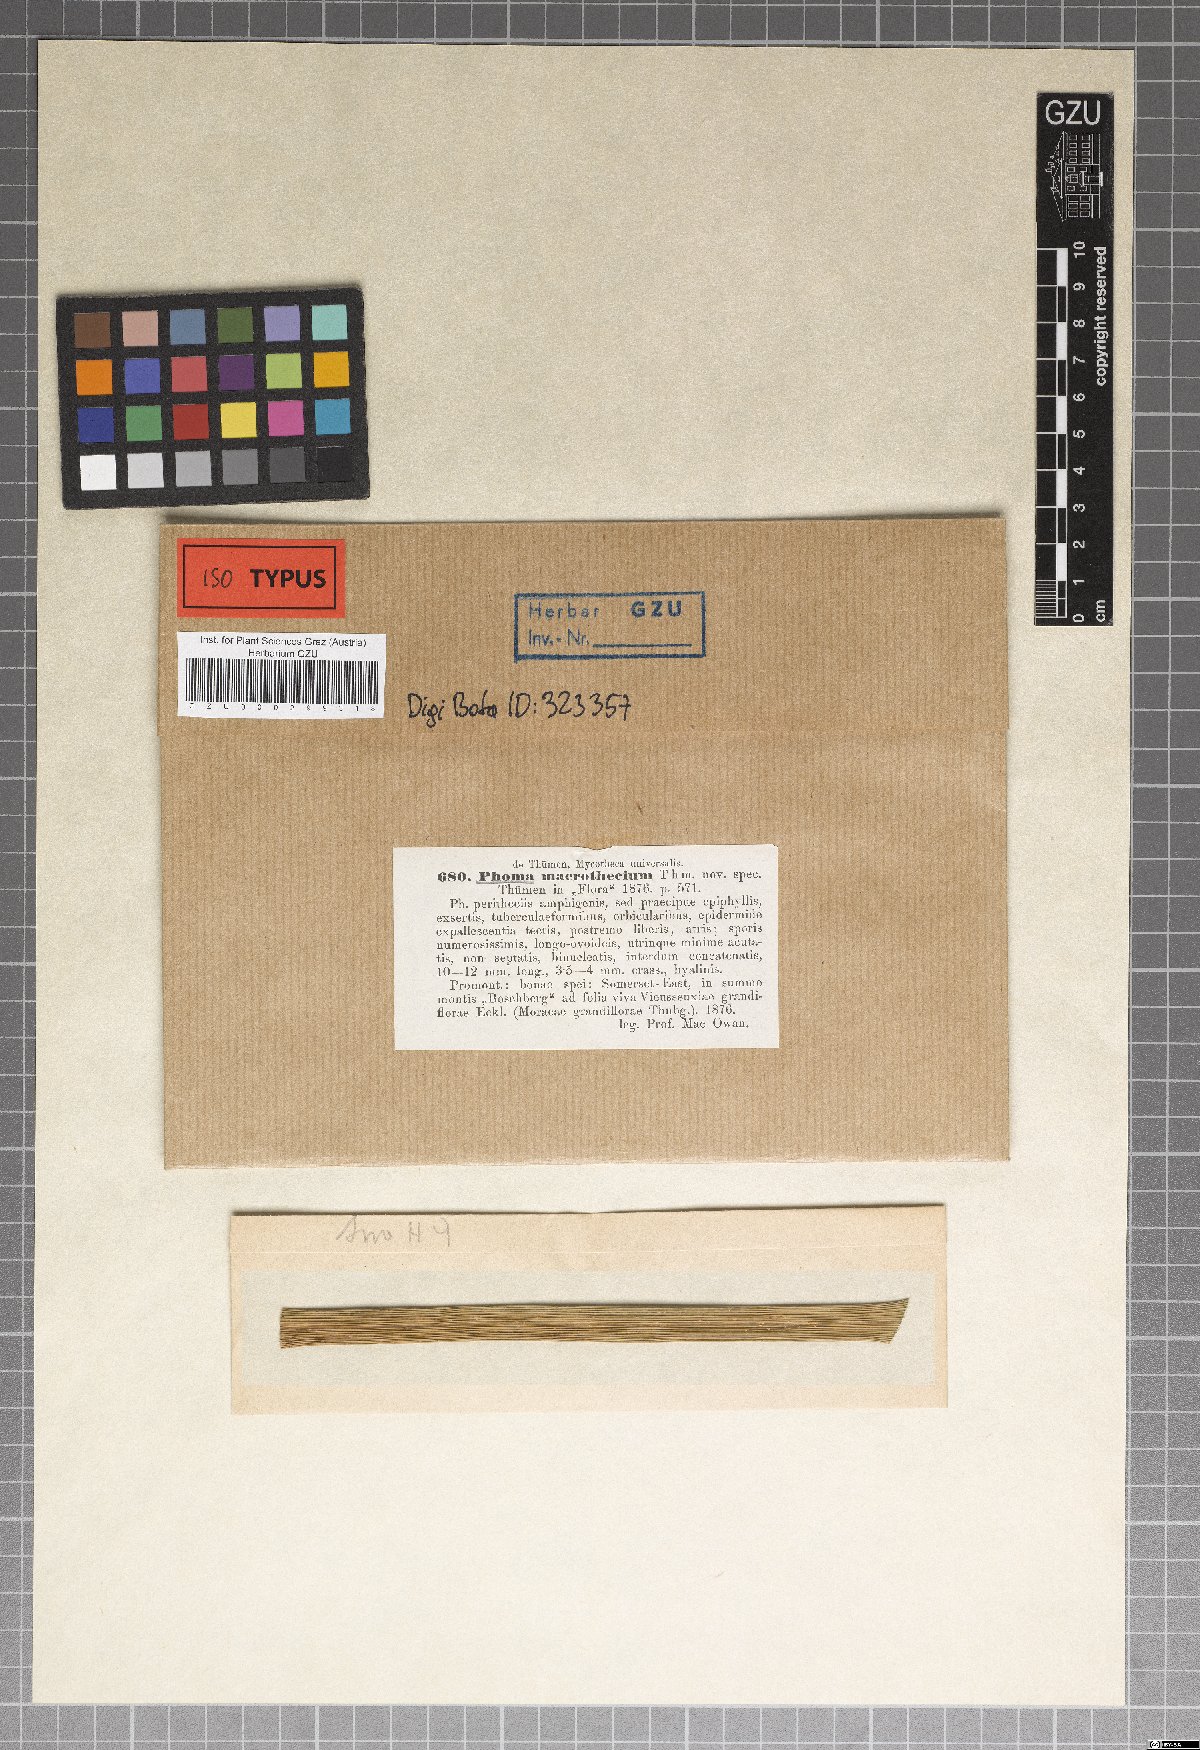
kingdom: Fungi
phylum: Ascomycota
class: Dothideomycetes
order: Botryosphaeriales
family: Phyllostictaceae
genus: Phyllosticta
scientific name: Phyllosticta macrothecia
